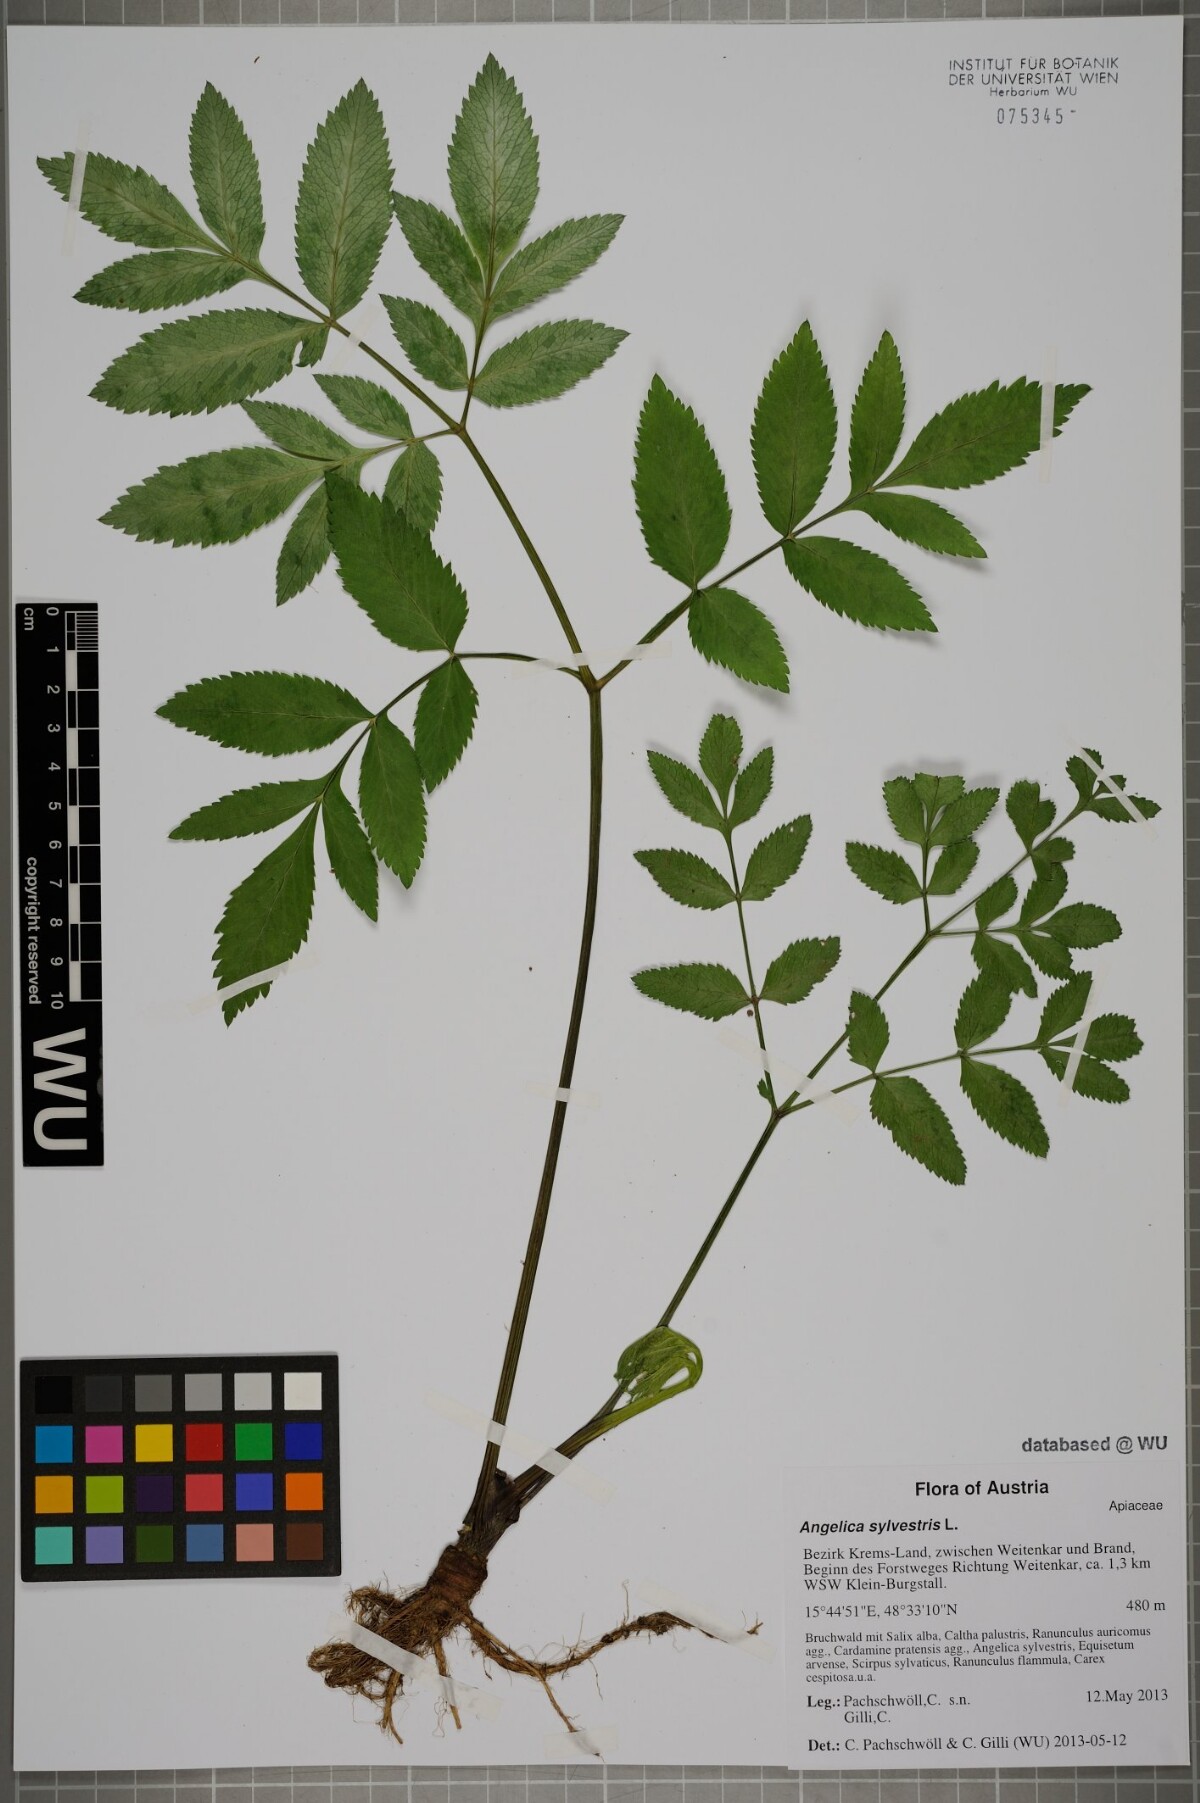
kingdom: Plantae
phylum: Tracheophyta
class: Magnoliopsida
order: Apiales
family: Apiaceae
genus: Angelica
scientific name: Angelica sylvestris
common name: Wild angelica
